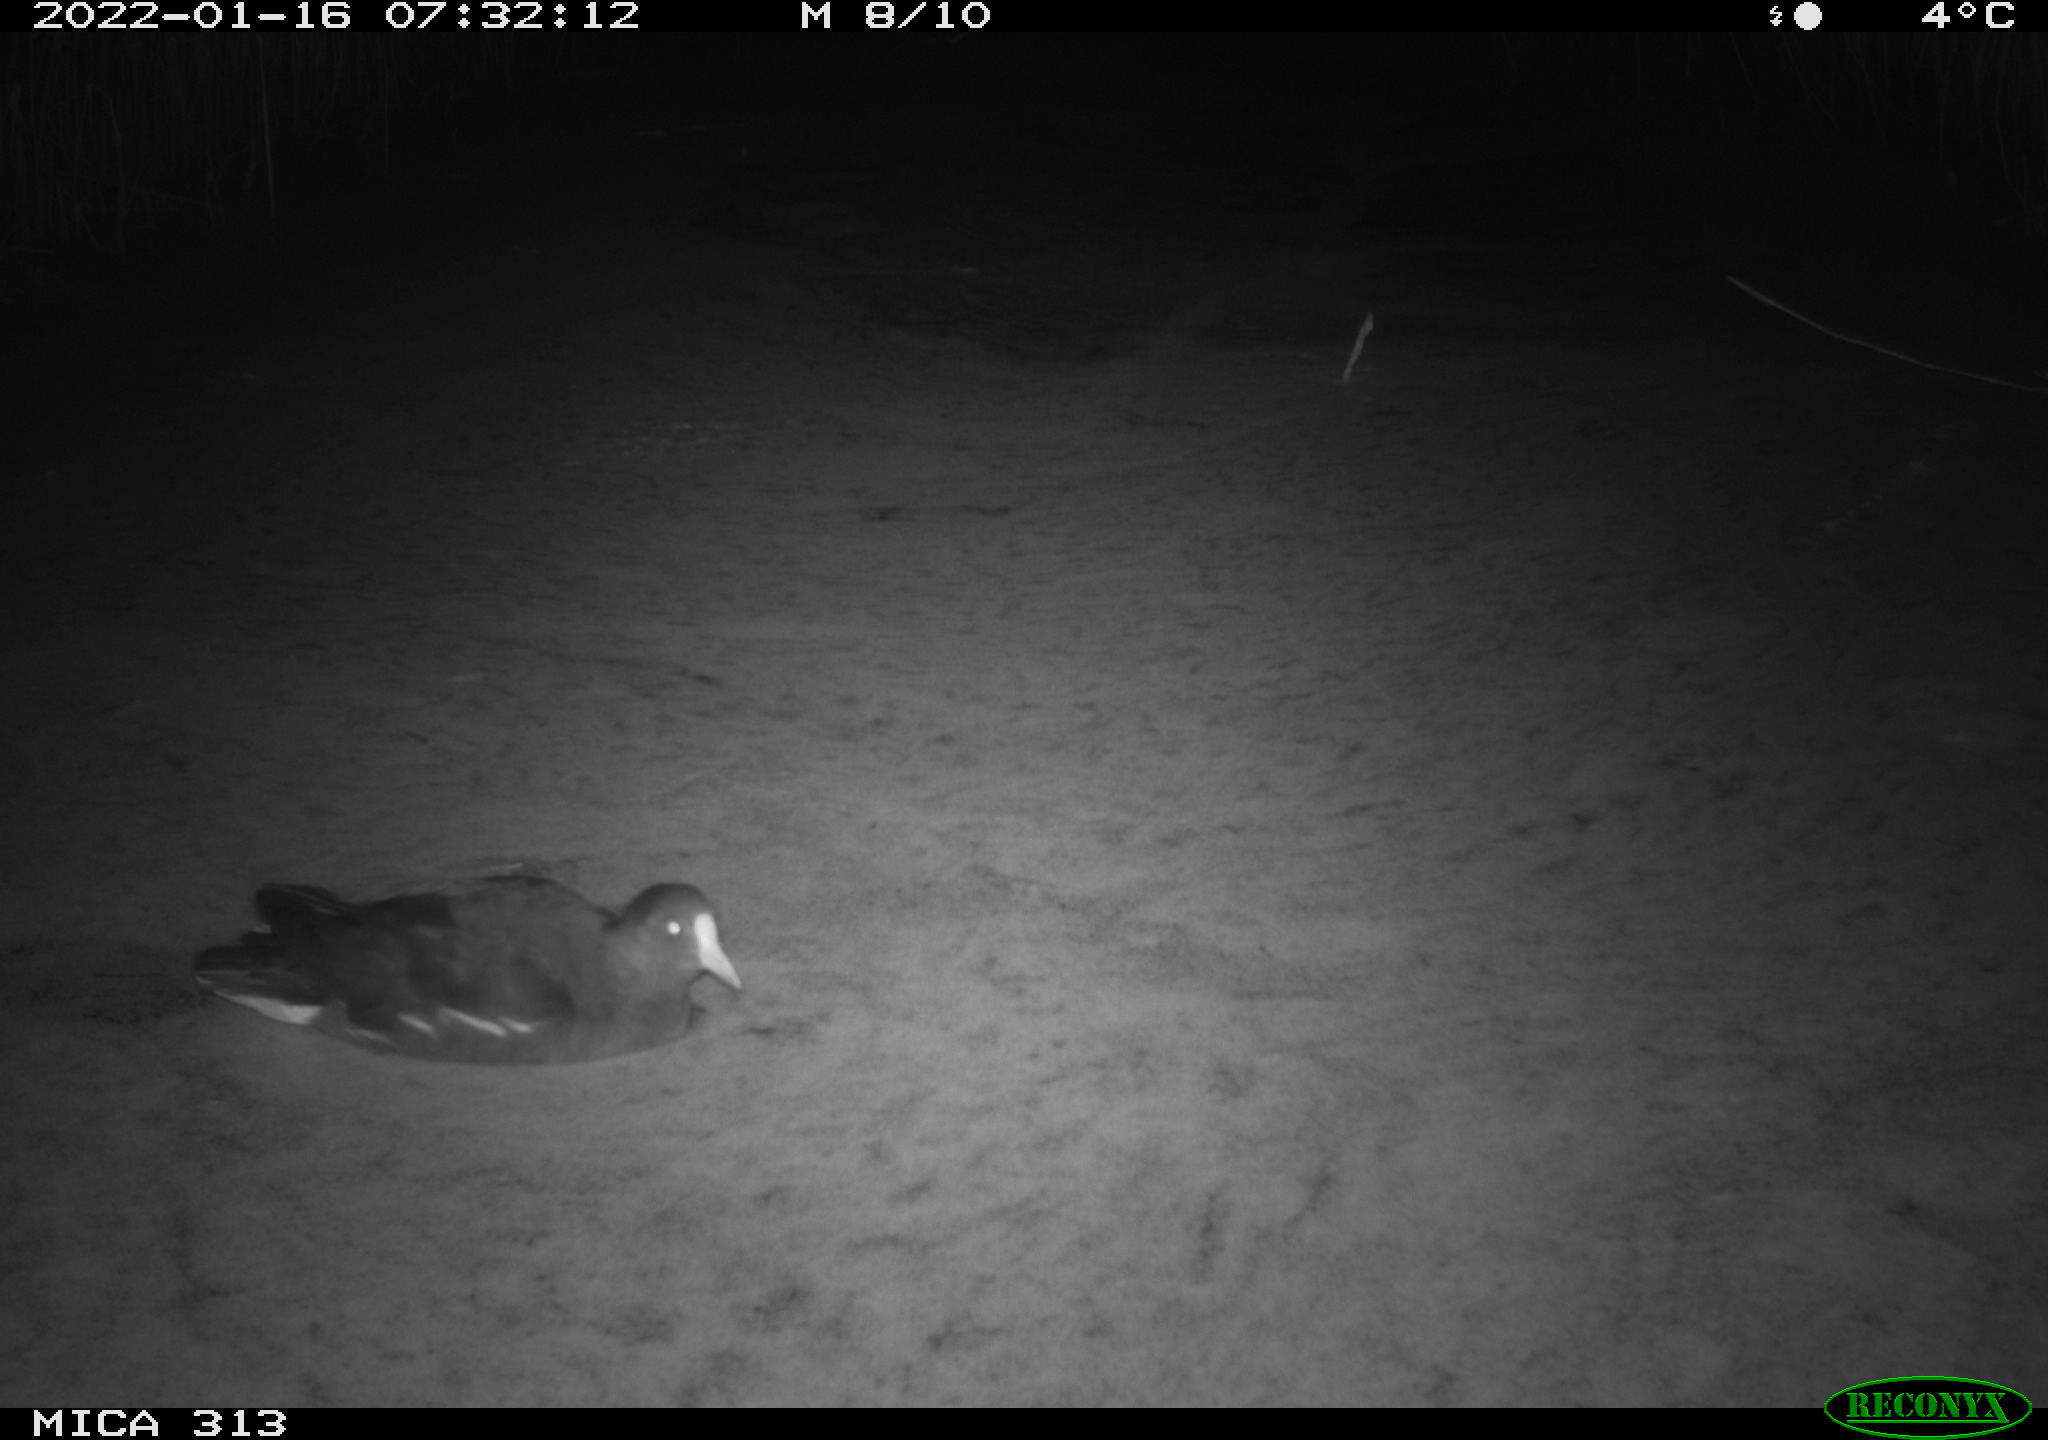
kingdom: Animalia
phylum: Chordata
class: Aves
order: Gruiformes
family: Rallidae
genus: Fulica
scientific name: Fulica atra
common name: Eurasian coot
